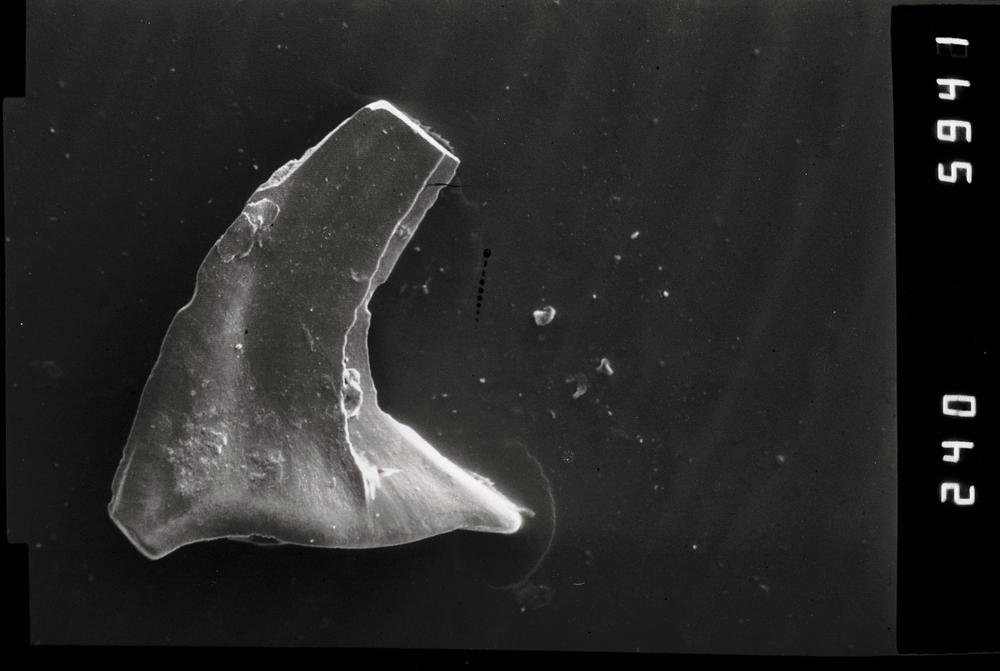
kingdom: Animalia
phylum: Chordata
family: Acodontidae
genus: Tripodus
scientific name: Tripodus
